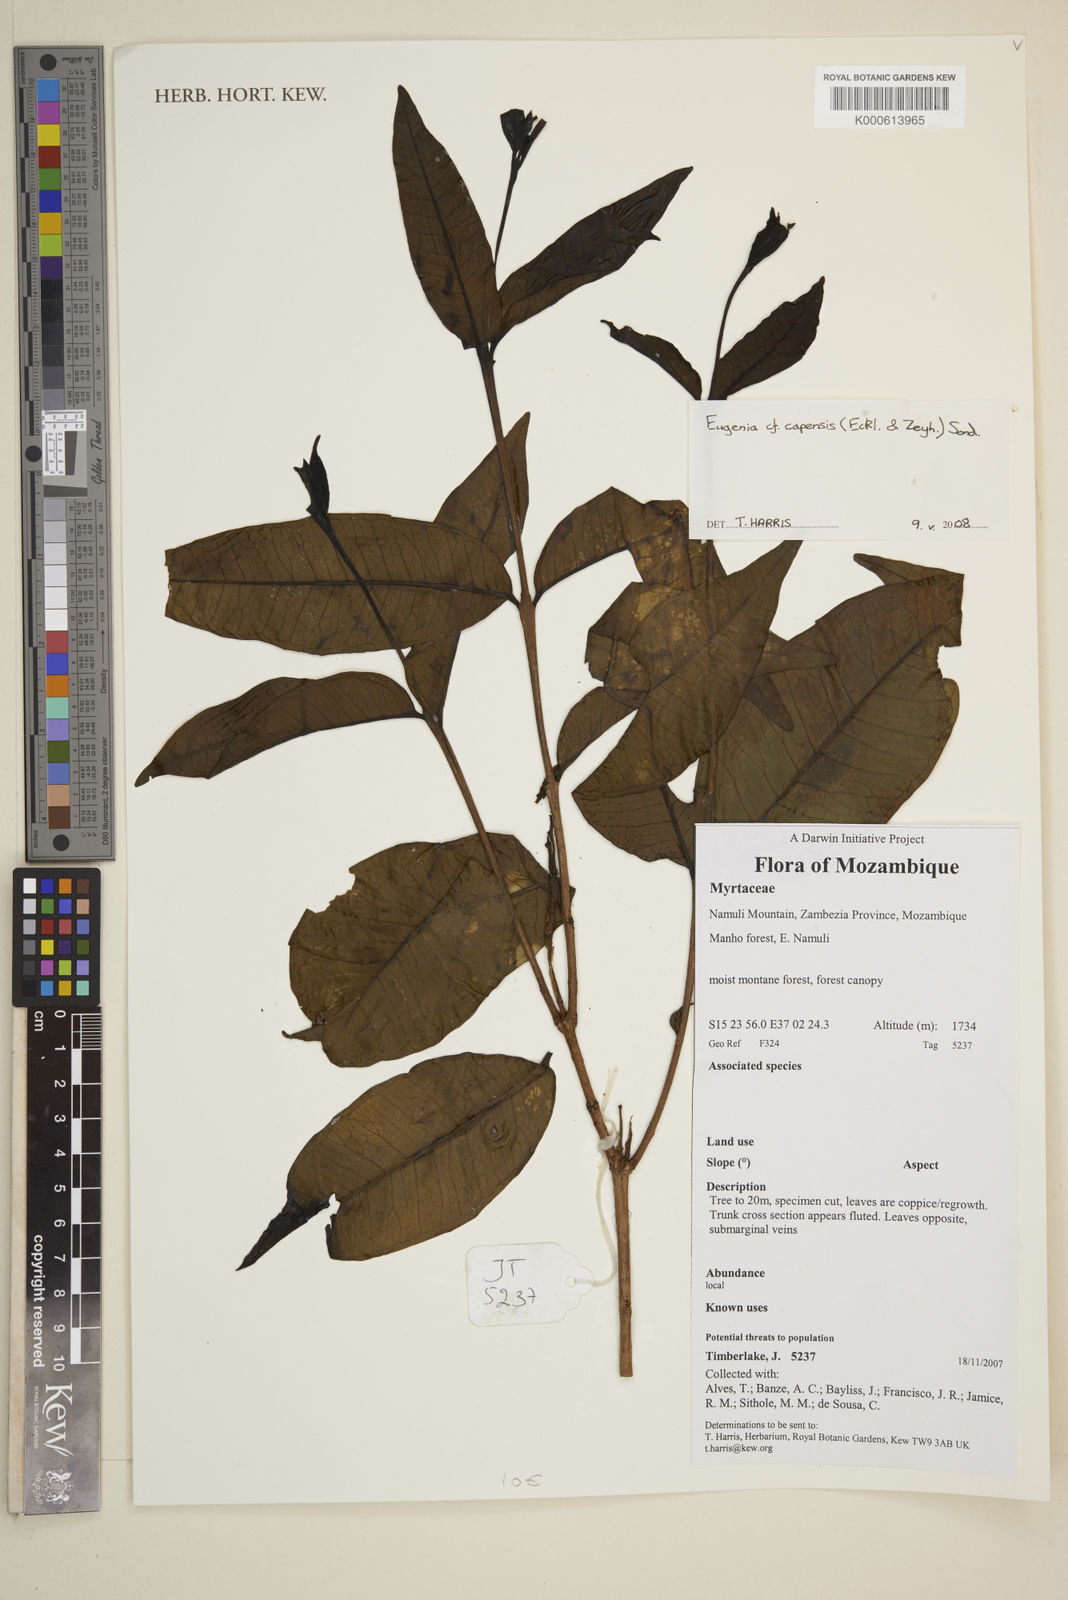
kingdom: Plantae
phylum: Tracheophyta
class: Magnoliopsida
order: Myrtales
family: Myrtaceae
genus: Eugenia
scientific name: Eugenia
